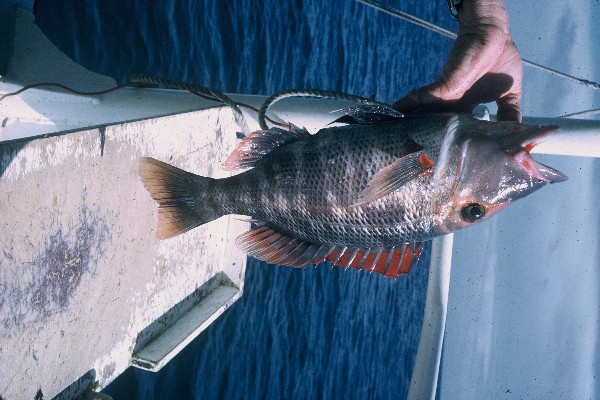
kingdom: Animalia
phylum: Chordata
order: Perciformes
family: Lethrinidae
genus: Lethrinus
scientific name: Lethrinus miniatus
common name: Trumpet emperor
